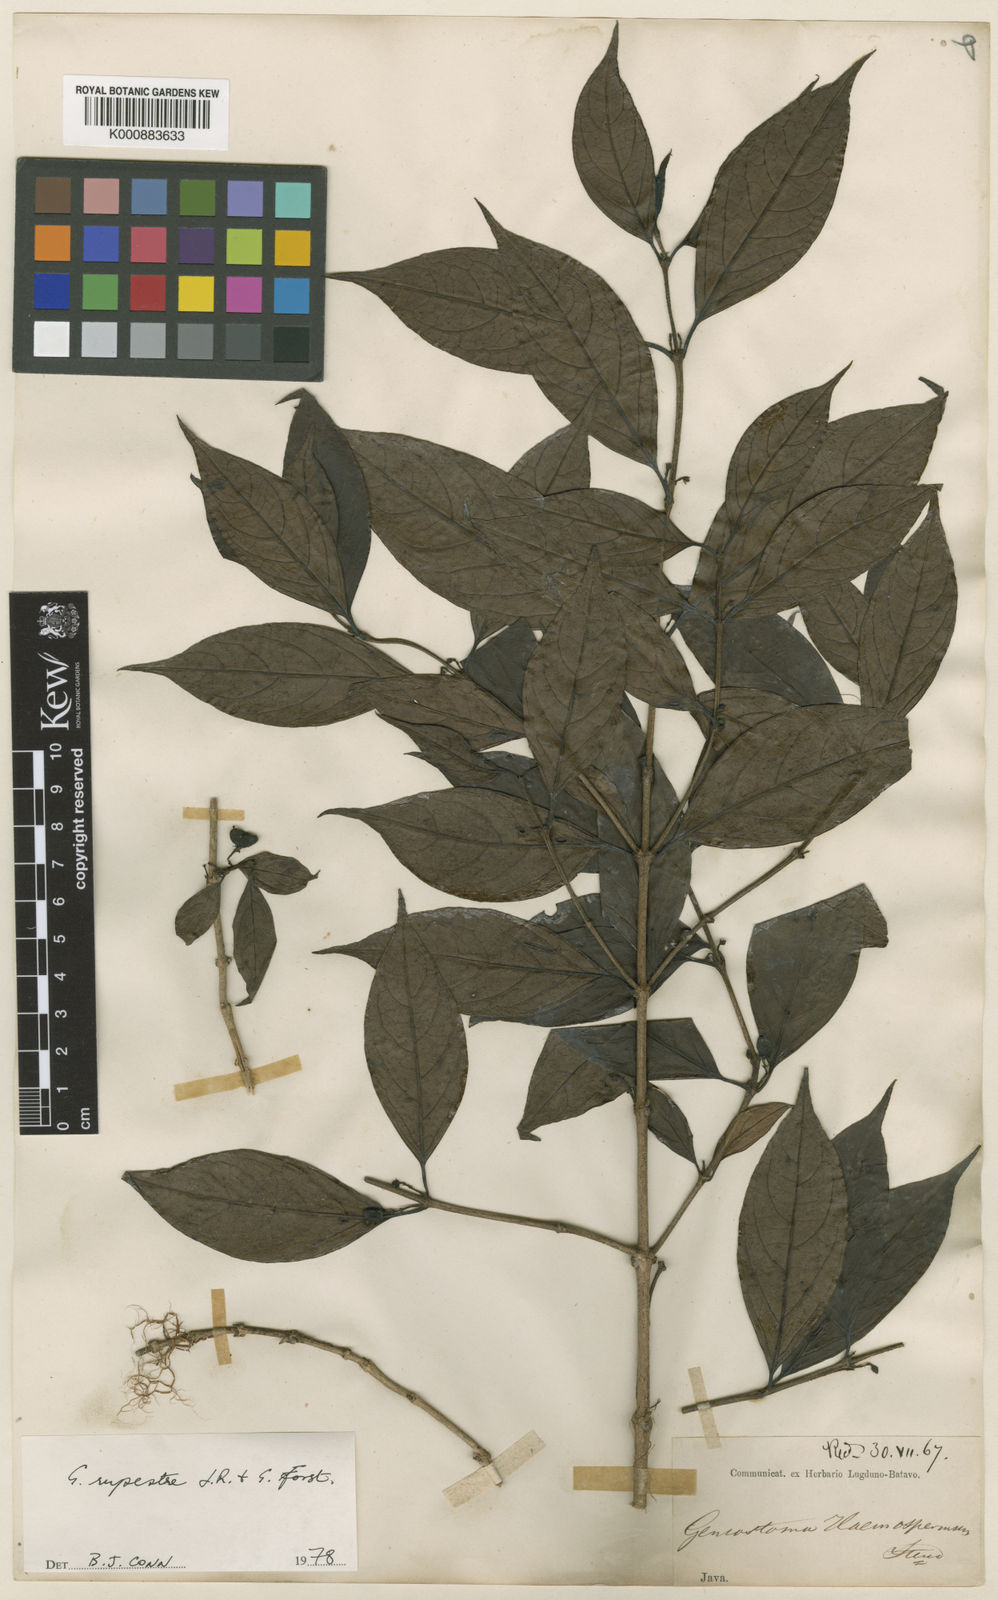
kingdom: Plantae
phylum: Tracheophyta
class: Magnoliopsida
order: Gentianales
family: Loganiaceae
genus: Geniostoma
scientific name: Geniostoma rupestre
